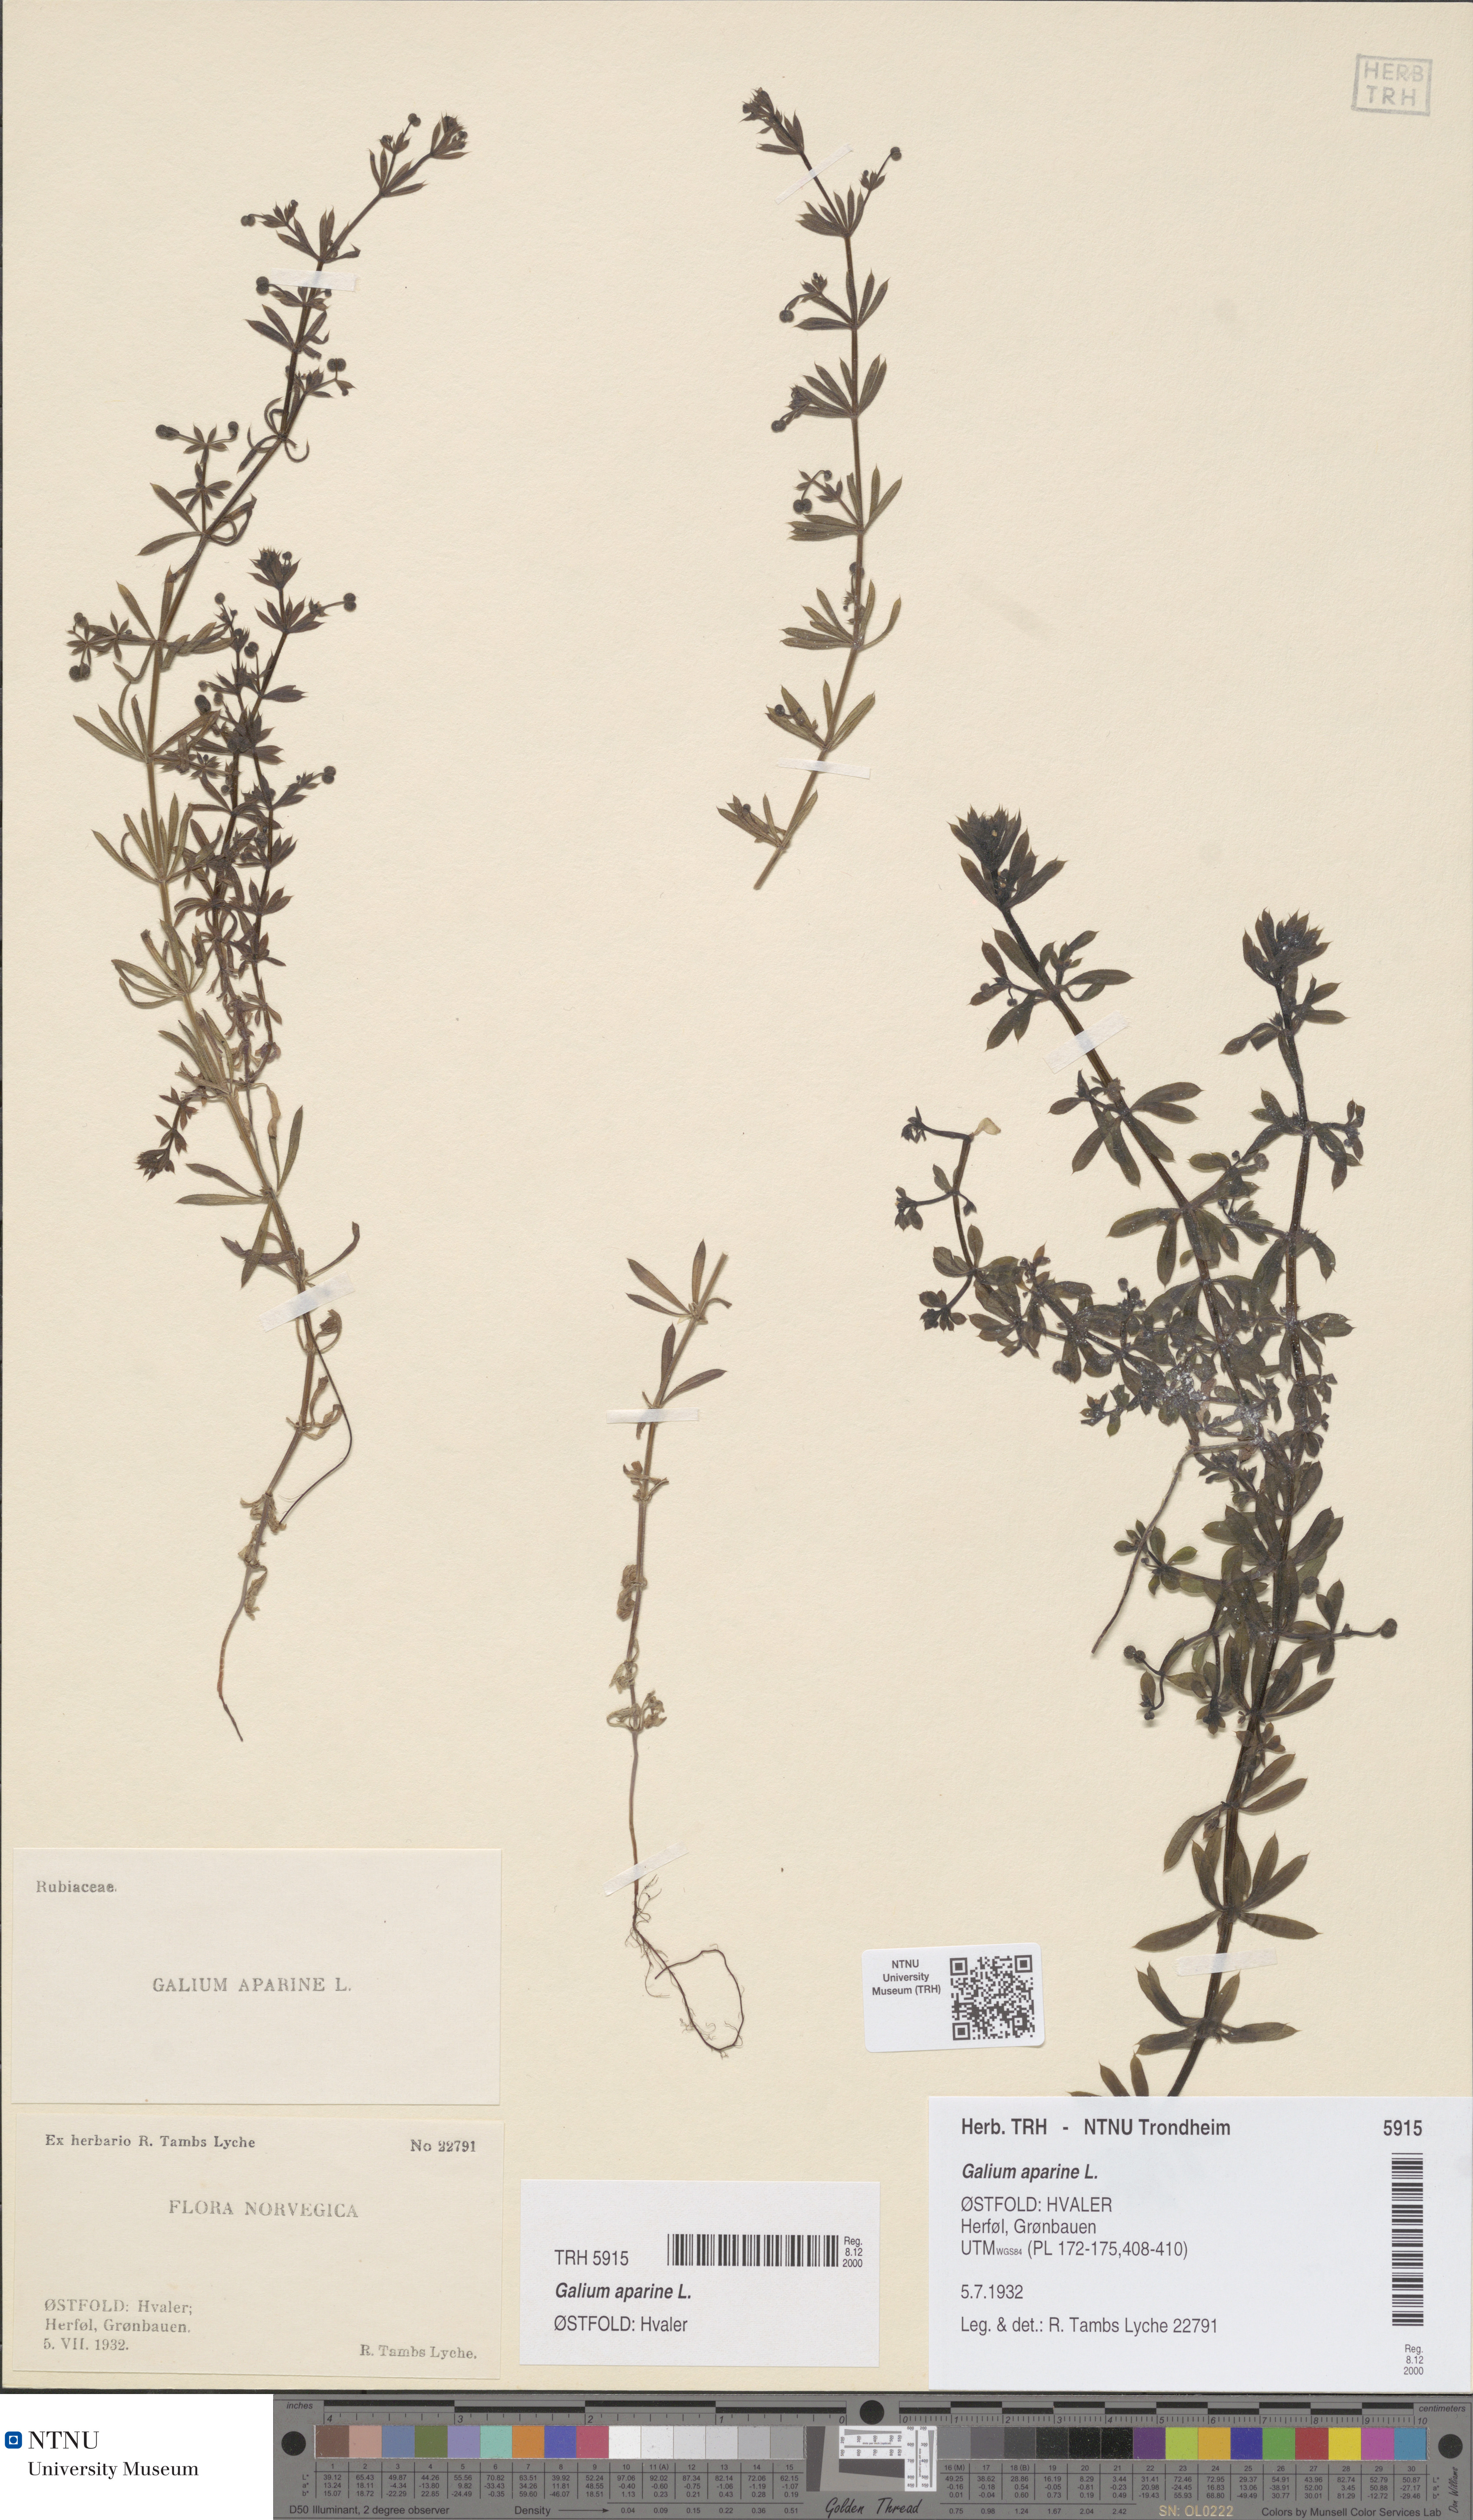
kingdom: Plantae
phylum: Tracheophyta
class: Magnoliopsida
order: Gentianales
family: Rubiaceae
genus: Galium
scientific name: Galium aparine
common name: Cleavers
